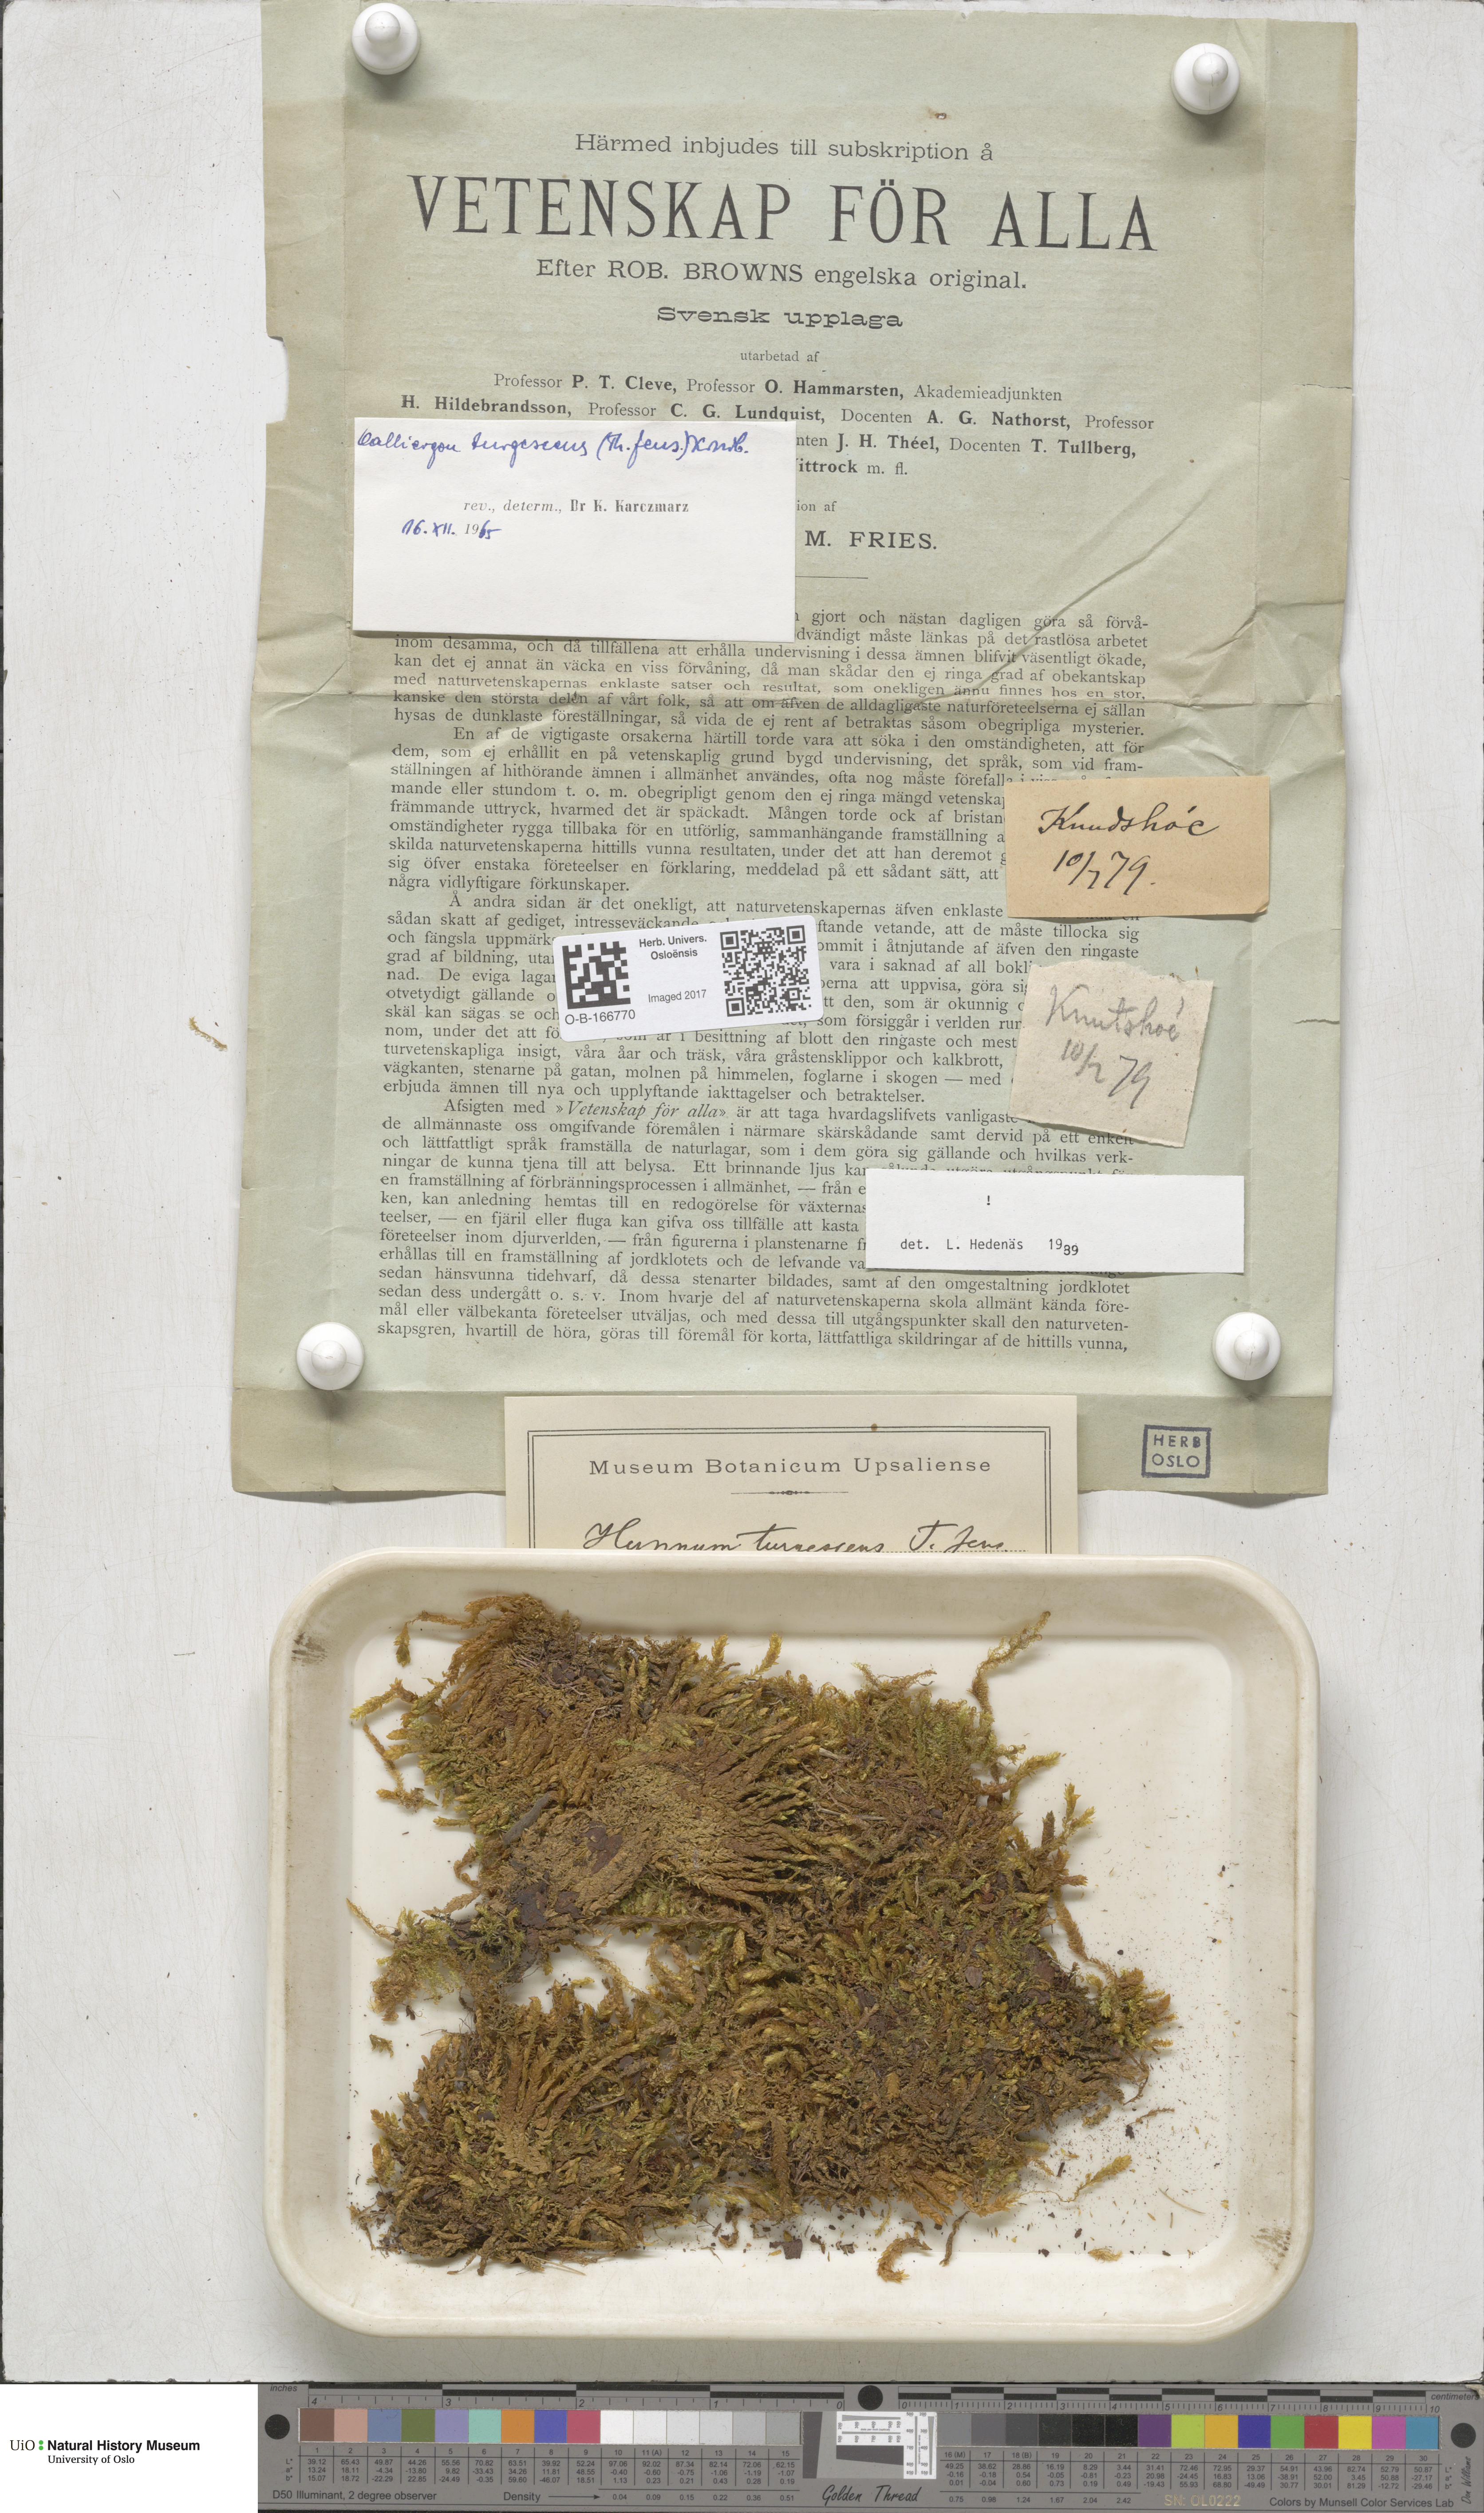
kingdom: Plantae
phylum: Bryophyta
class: Bryopsida
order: Hypnales
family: Amblystegiaceae
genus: Drepanocladus
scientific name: Drepanocladus turgescens
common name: Large yellow feather-moss
